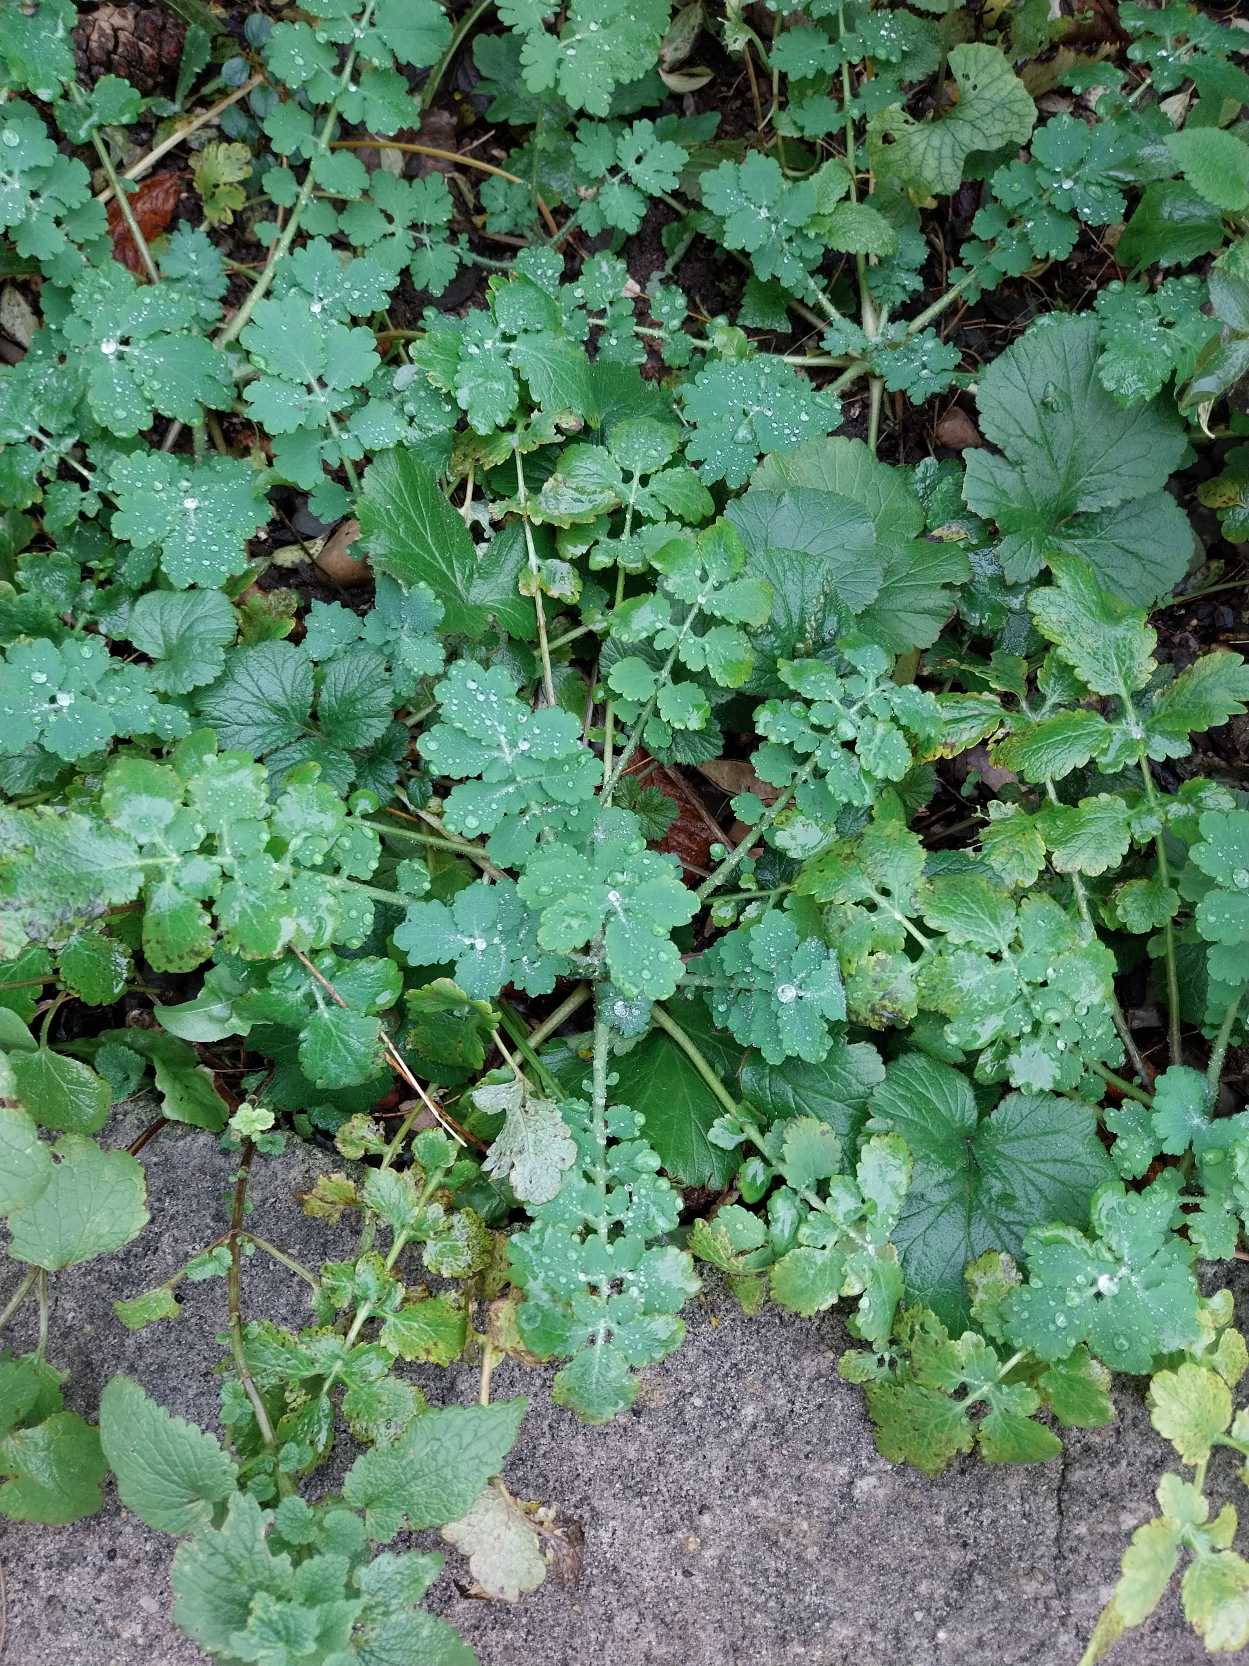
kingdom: Plantae
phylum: Tracheophyta
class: Magnoliopsida
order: Ranunculales
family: Papaveraceae
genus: Chelidonium
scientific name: Chelidonium majus
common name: Svaleurt
